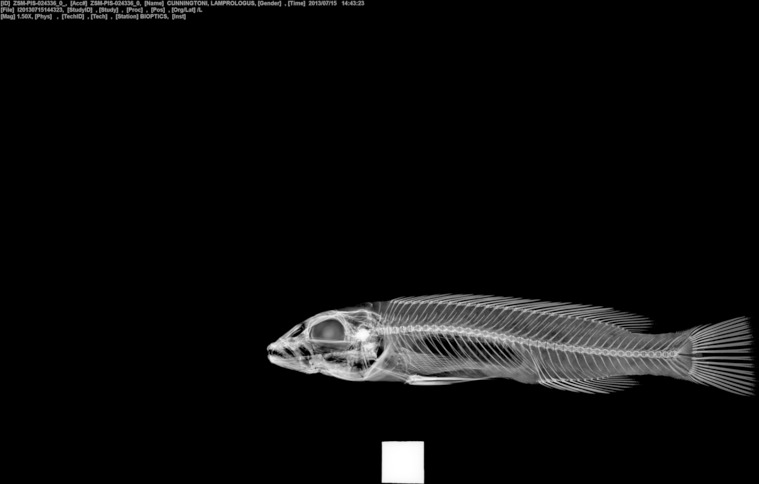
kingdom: Animalia
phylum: Chordata
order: Perciformes
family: Cichlidae
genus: Lepidiolamprologus
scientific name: Lepidiolamprologus cunningtoni
